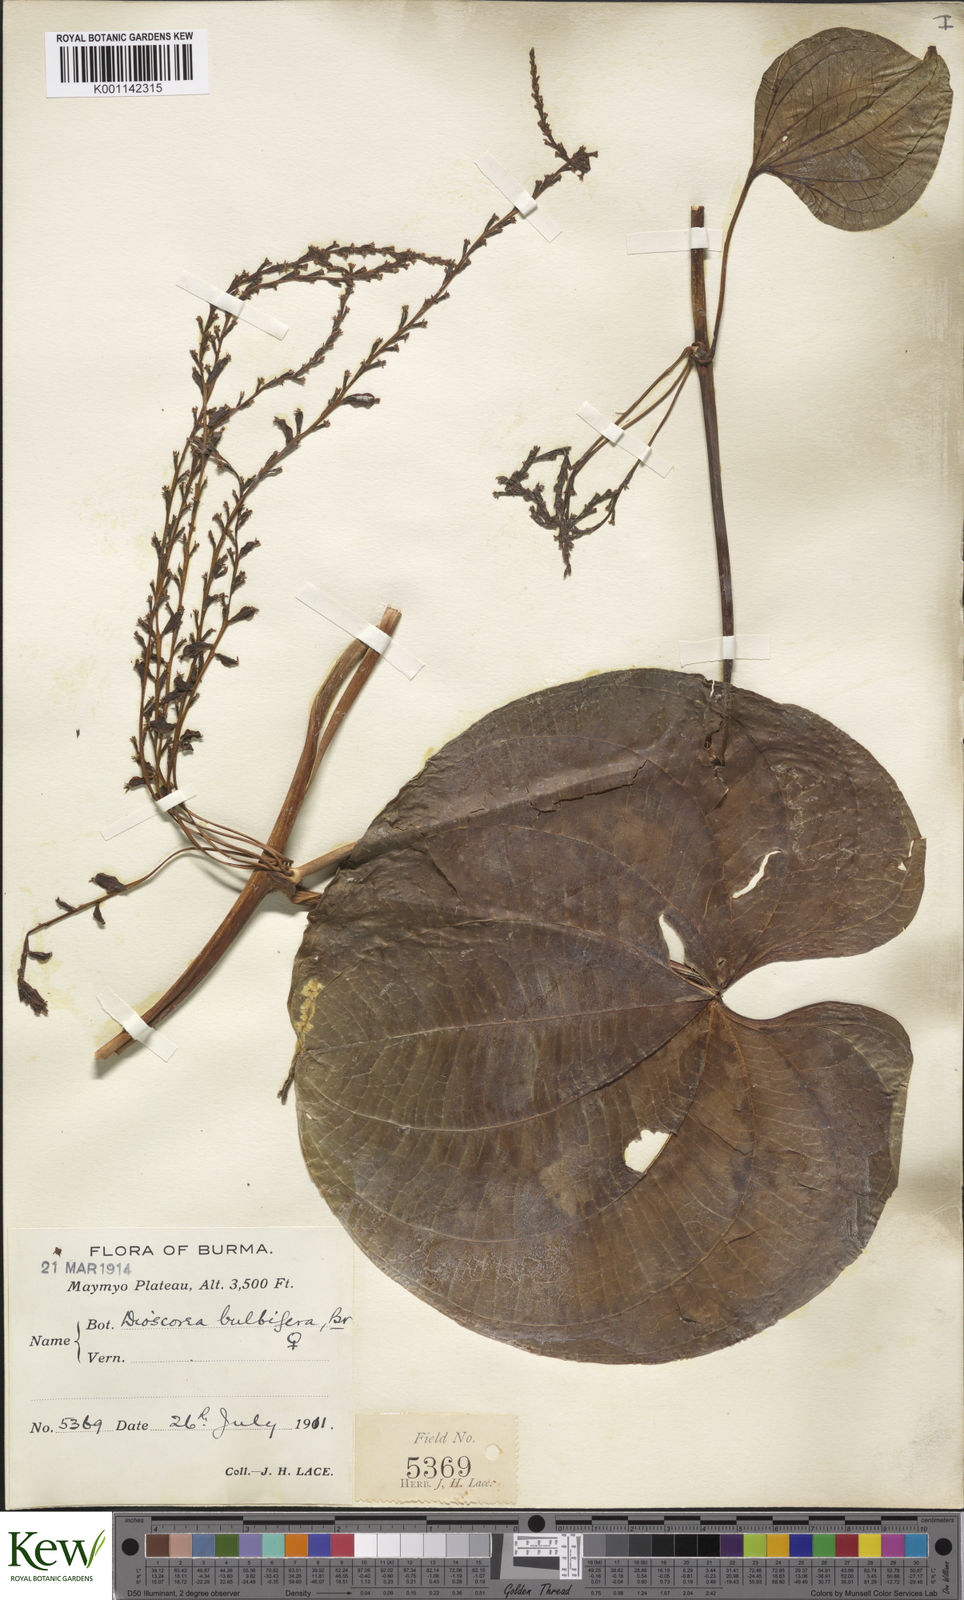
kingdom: Plantae
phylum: Tracheophyta
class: Liliopsida
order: Dioscoreales
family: Dioscoreaceae
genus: Dioscorea
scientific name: Dioscorea bulbifera
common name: Air yam
